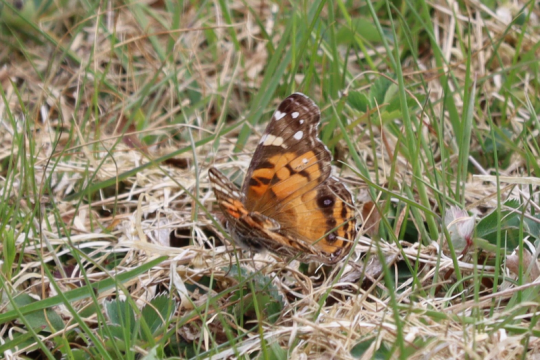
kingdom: Animalia
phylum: Arthropoda
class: Insecta
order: Lepidoptera
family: Nymphalidae
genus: Vanessa
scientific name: Vanessa virginiensis
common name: American Lady
